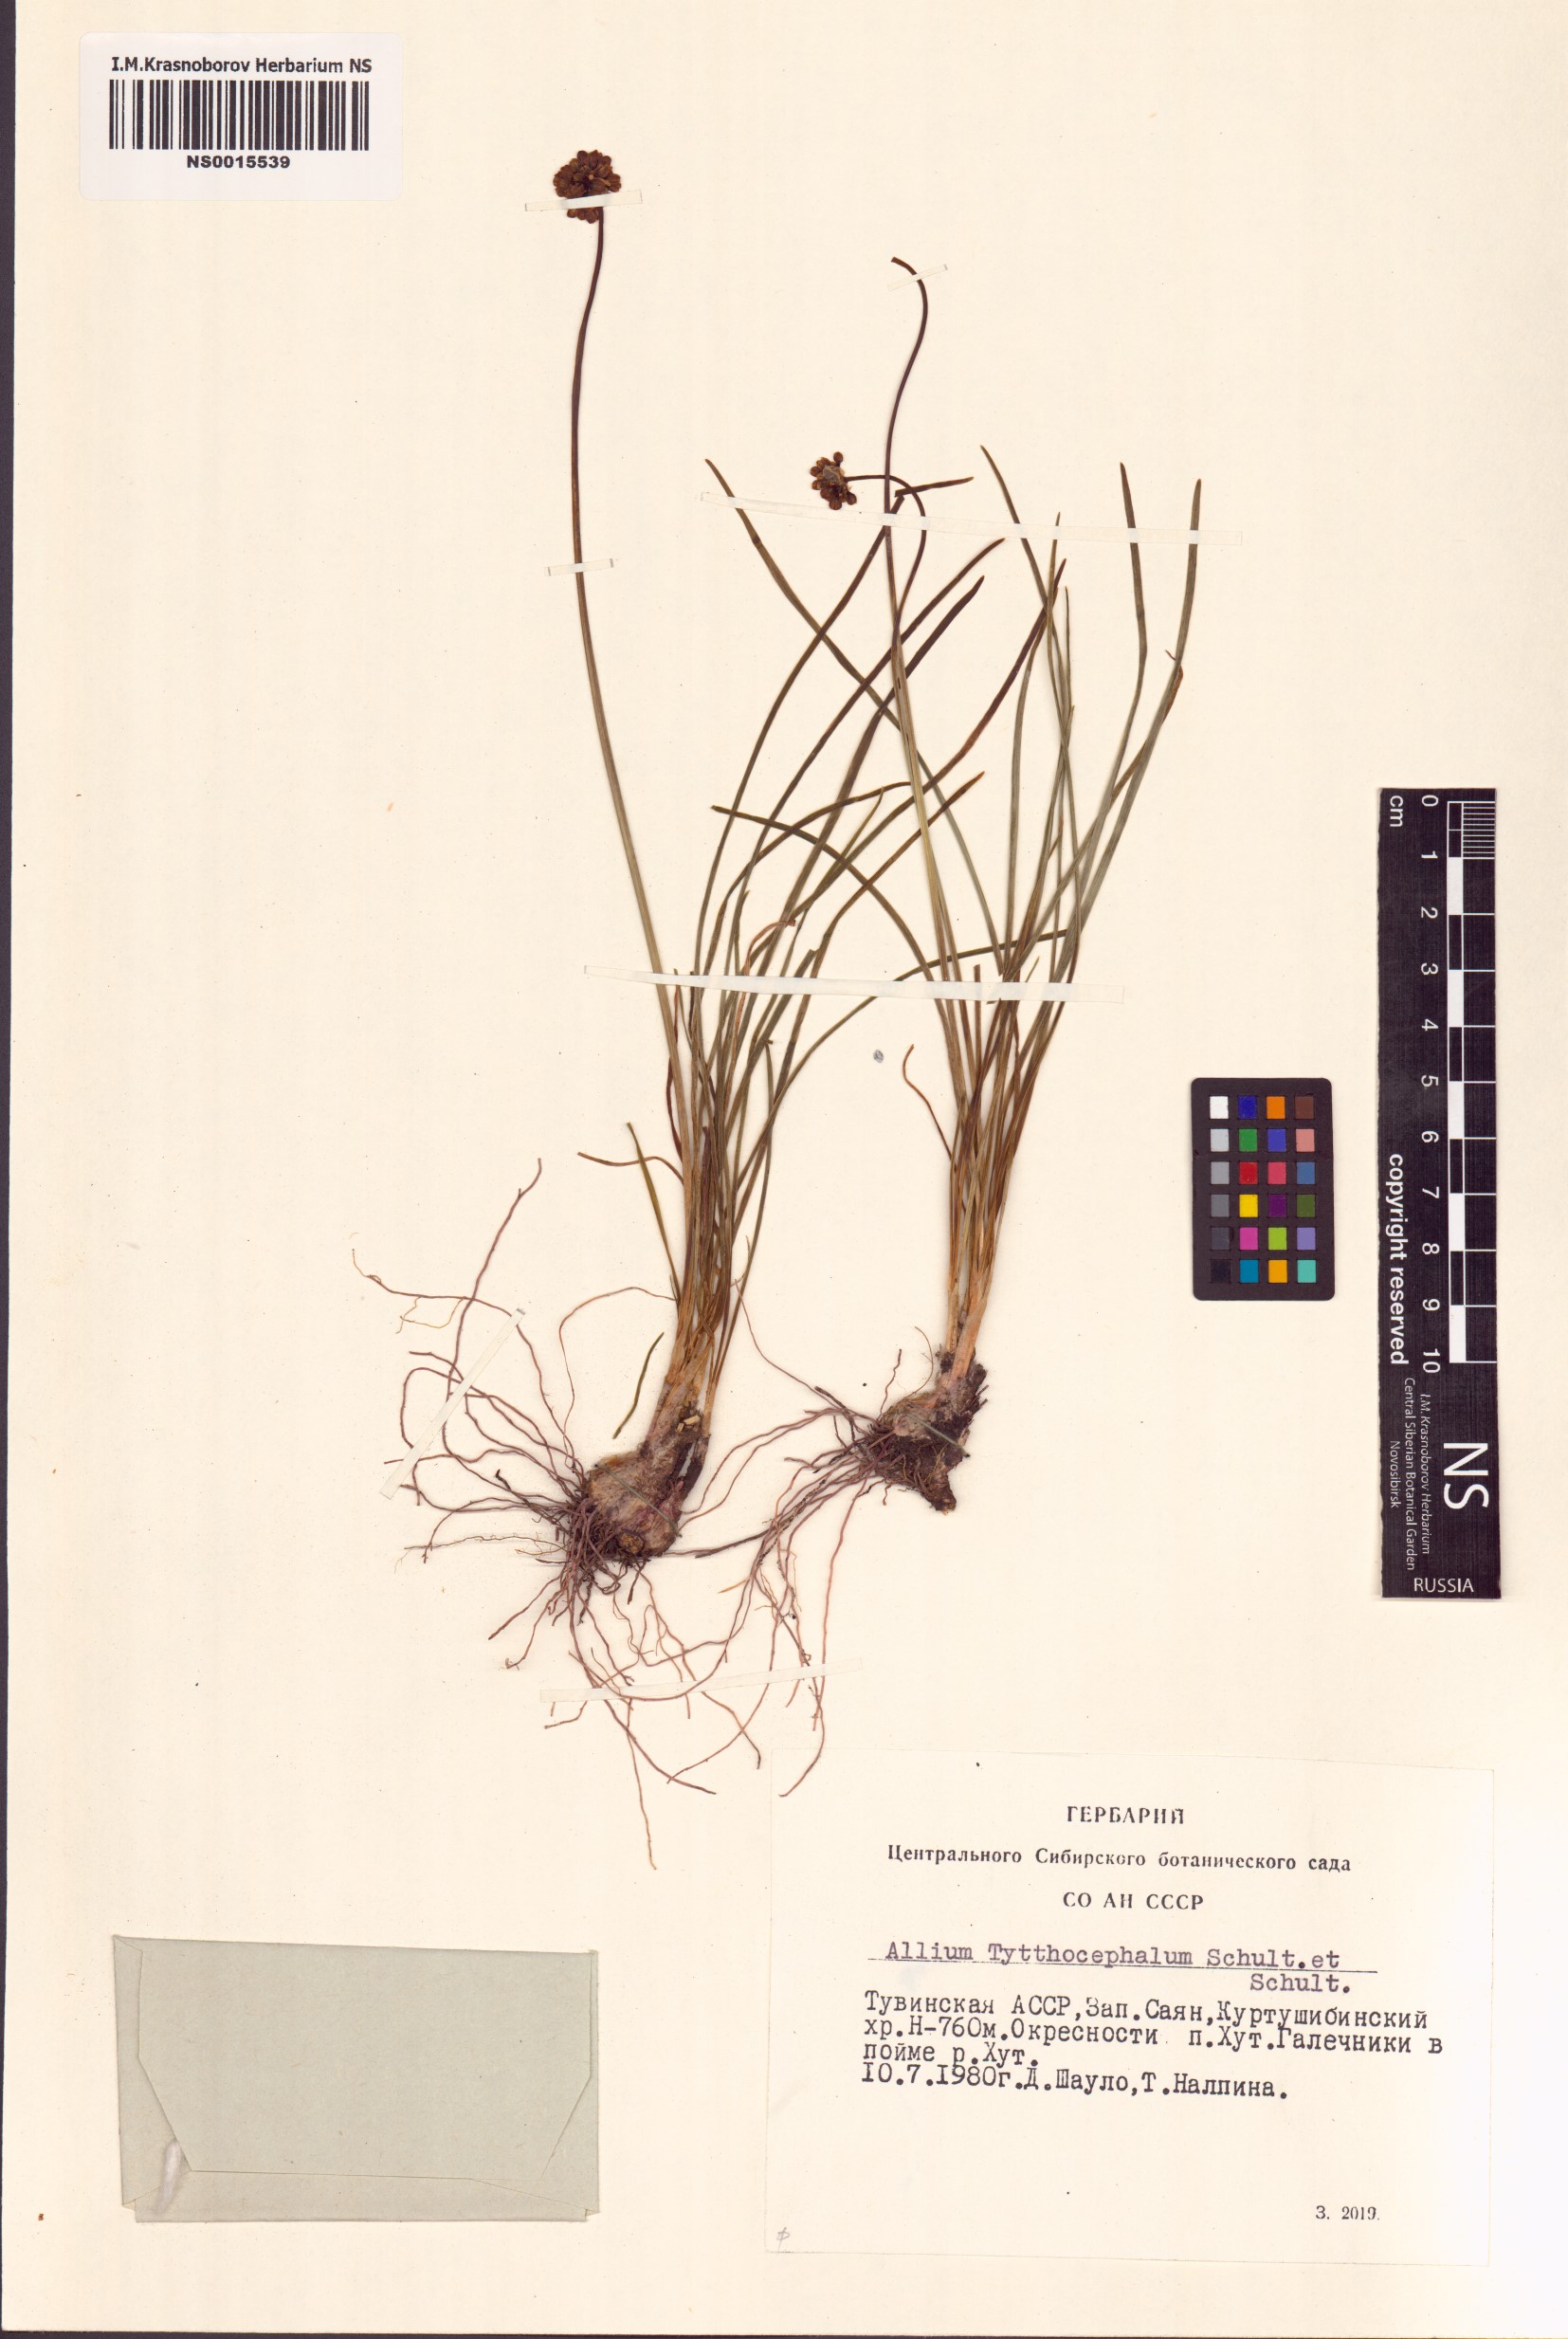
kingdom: Plantae
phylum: Tracheophyta
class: Liliopsida
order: Asparagales
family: Amaryllidaceae
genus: Allium
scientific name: Allium tytthocephalum
